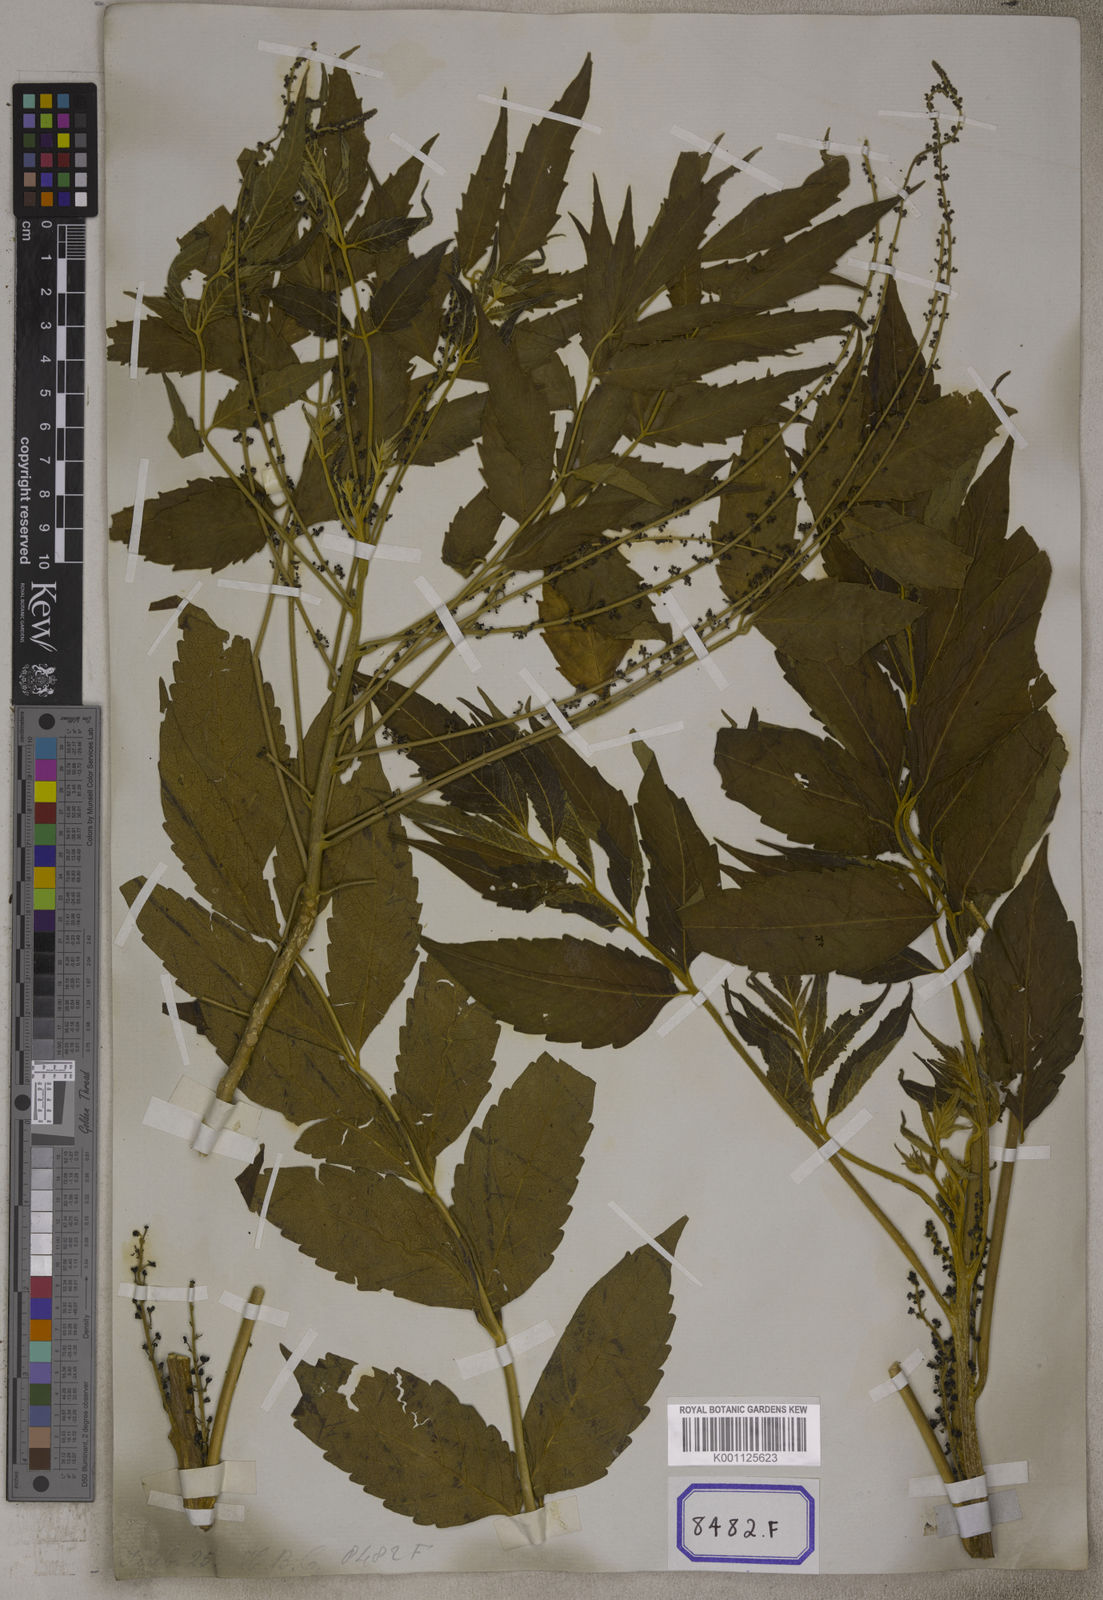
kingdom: Plantae
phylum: Tracheophyta
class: Magnoliopsida
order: Sapindales
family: Simaroubaceae
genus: Brucea
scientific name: Brucea javanica
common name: Macassar kernels
